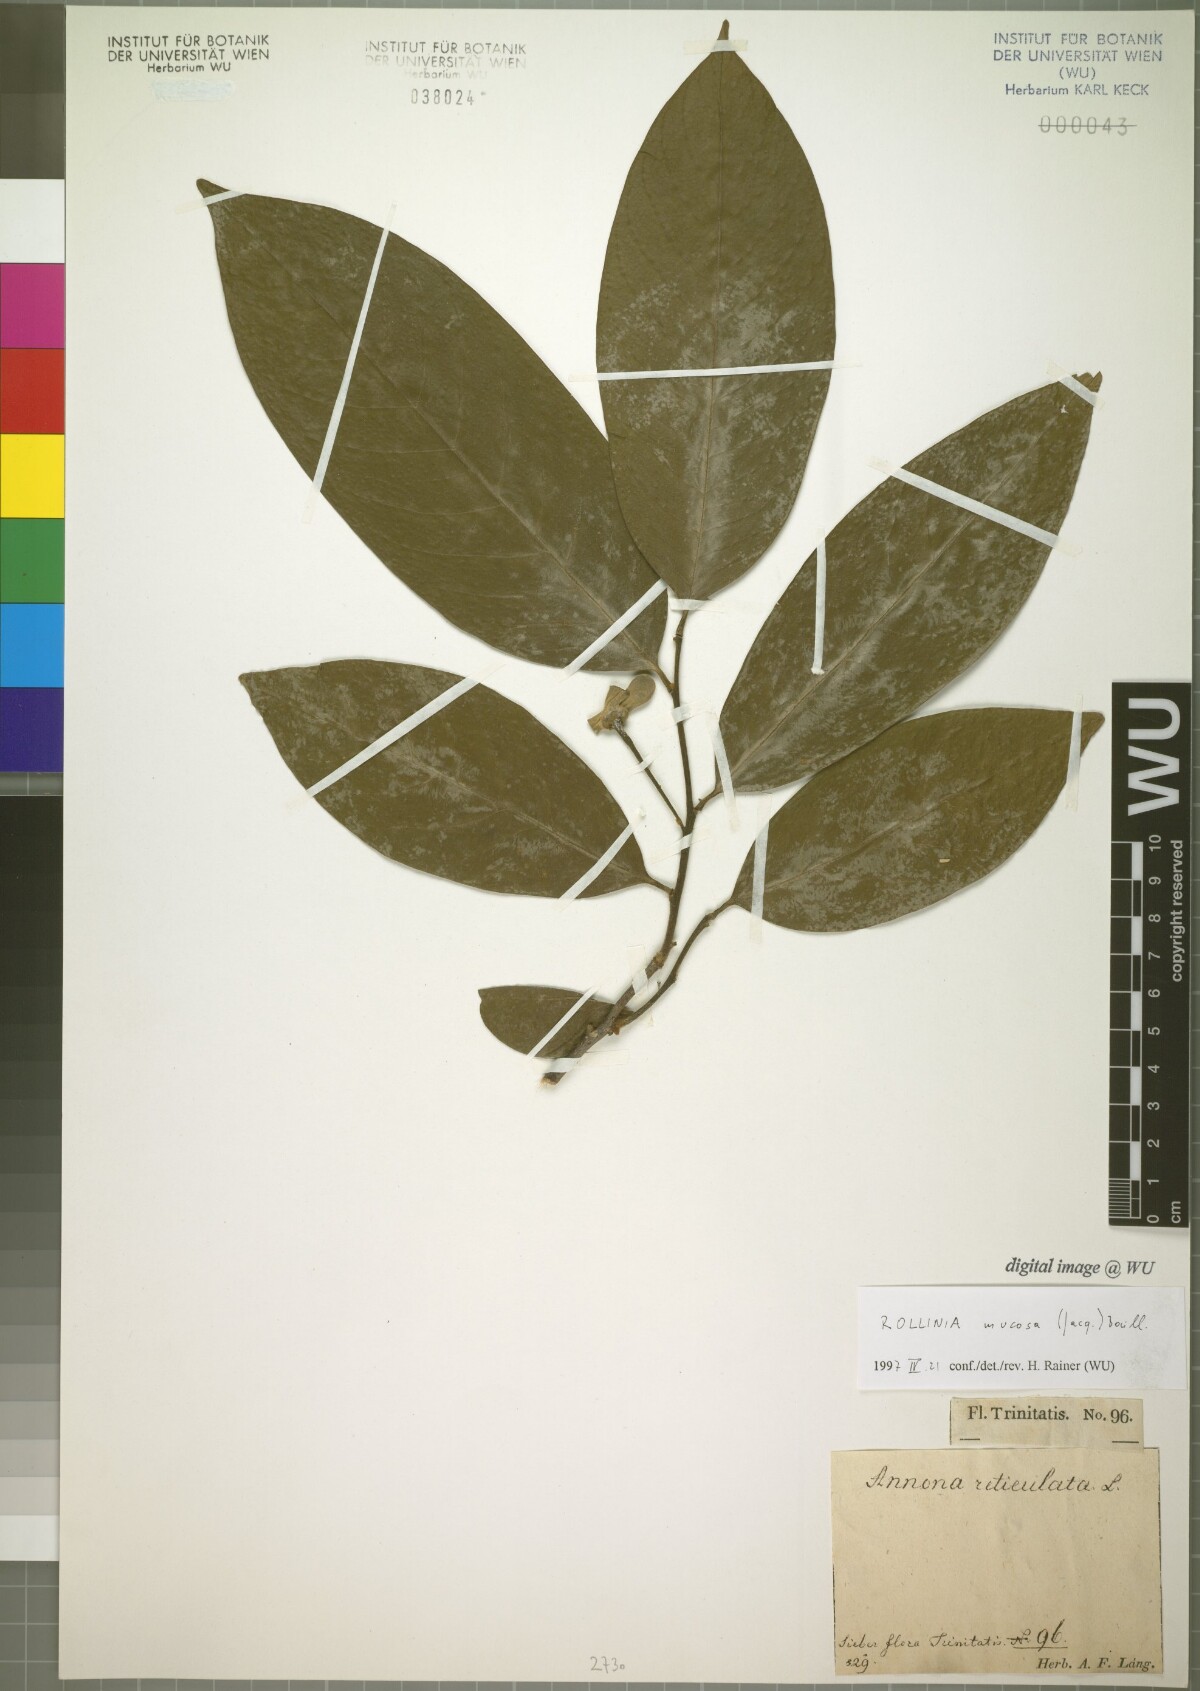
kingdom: Plantae
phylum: Tracheophyta
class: Magnoliopsida
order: Magnoliales
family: Annonaceae
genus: Annona
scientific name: Annona mucosa
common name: Sugar apple
